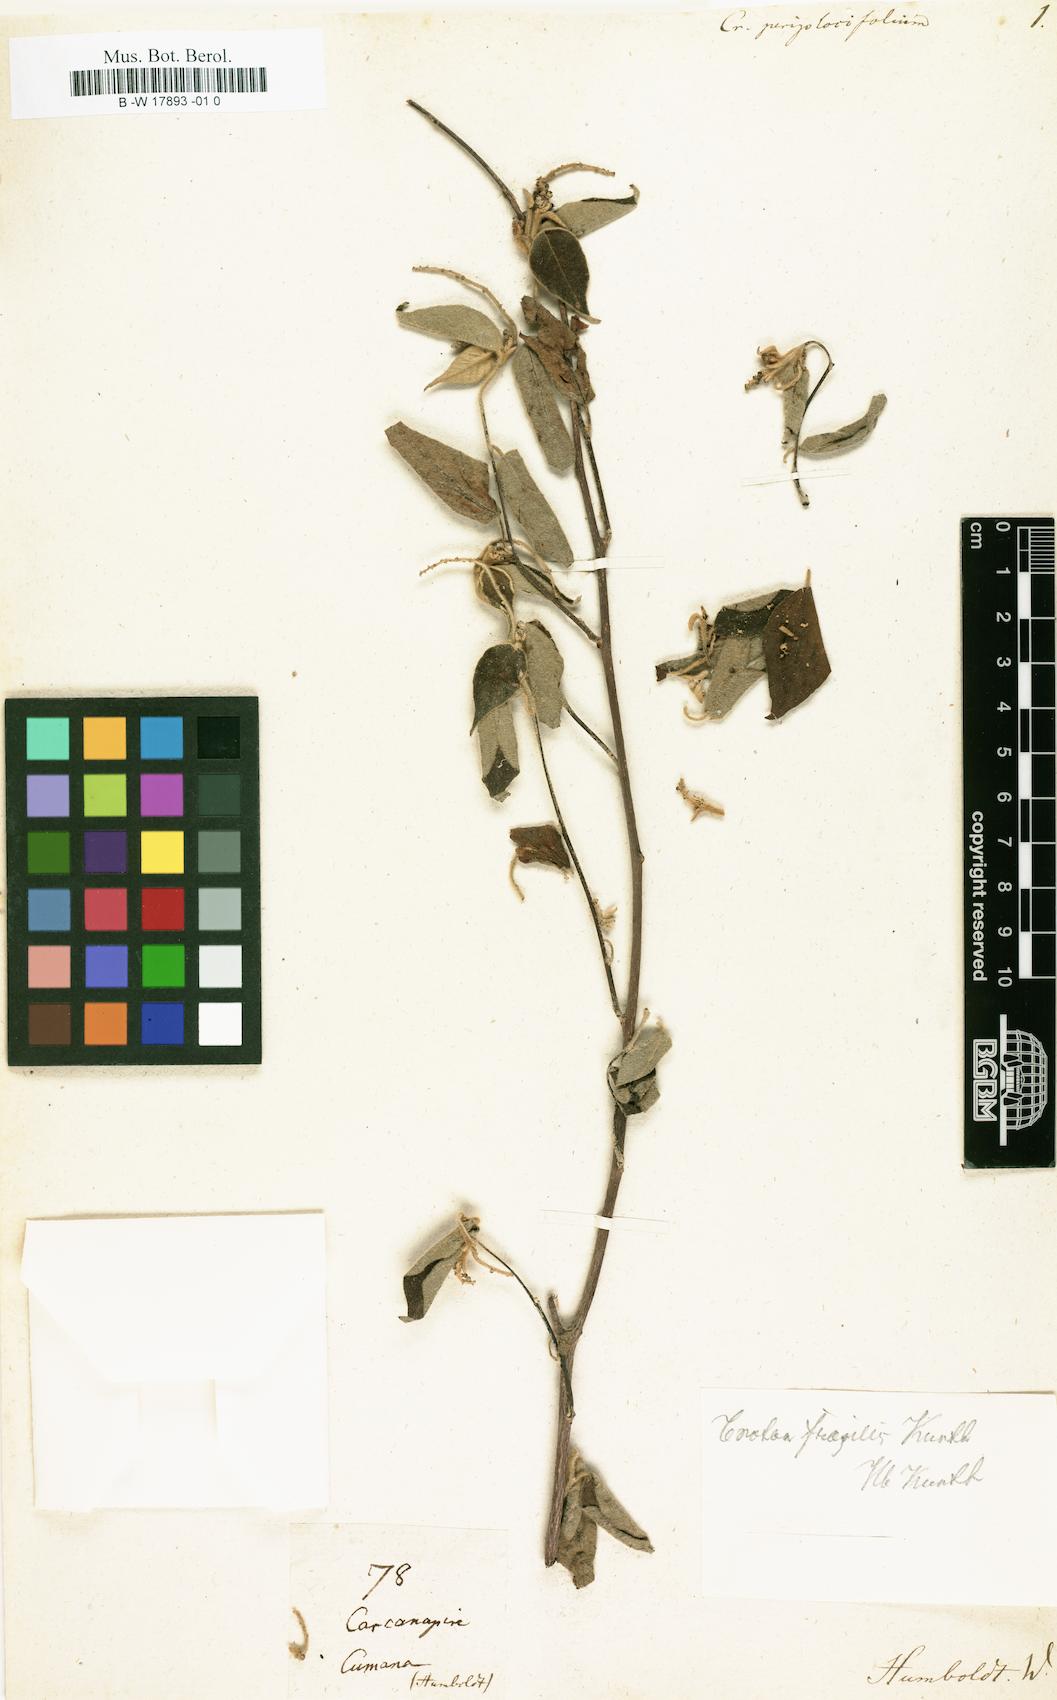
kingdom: Plantae
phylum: Tracheophyta
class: Magnoliopsida
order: Malpighiales
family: Euphorbiaceae
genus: Croton
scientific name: Croton
